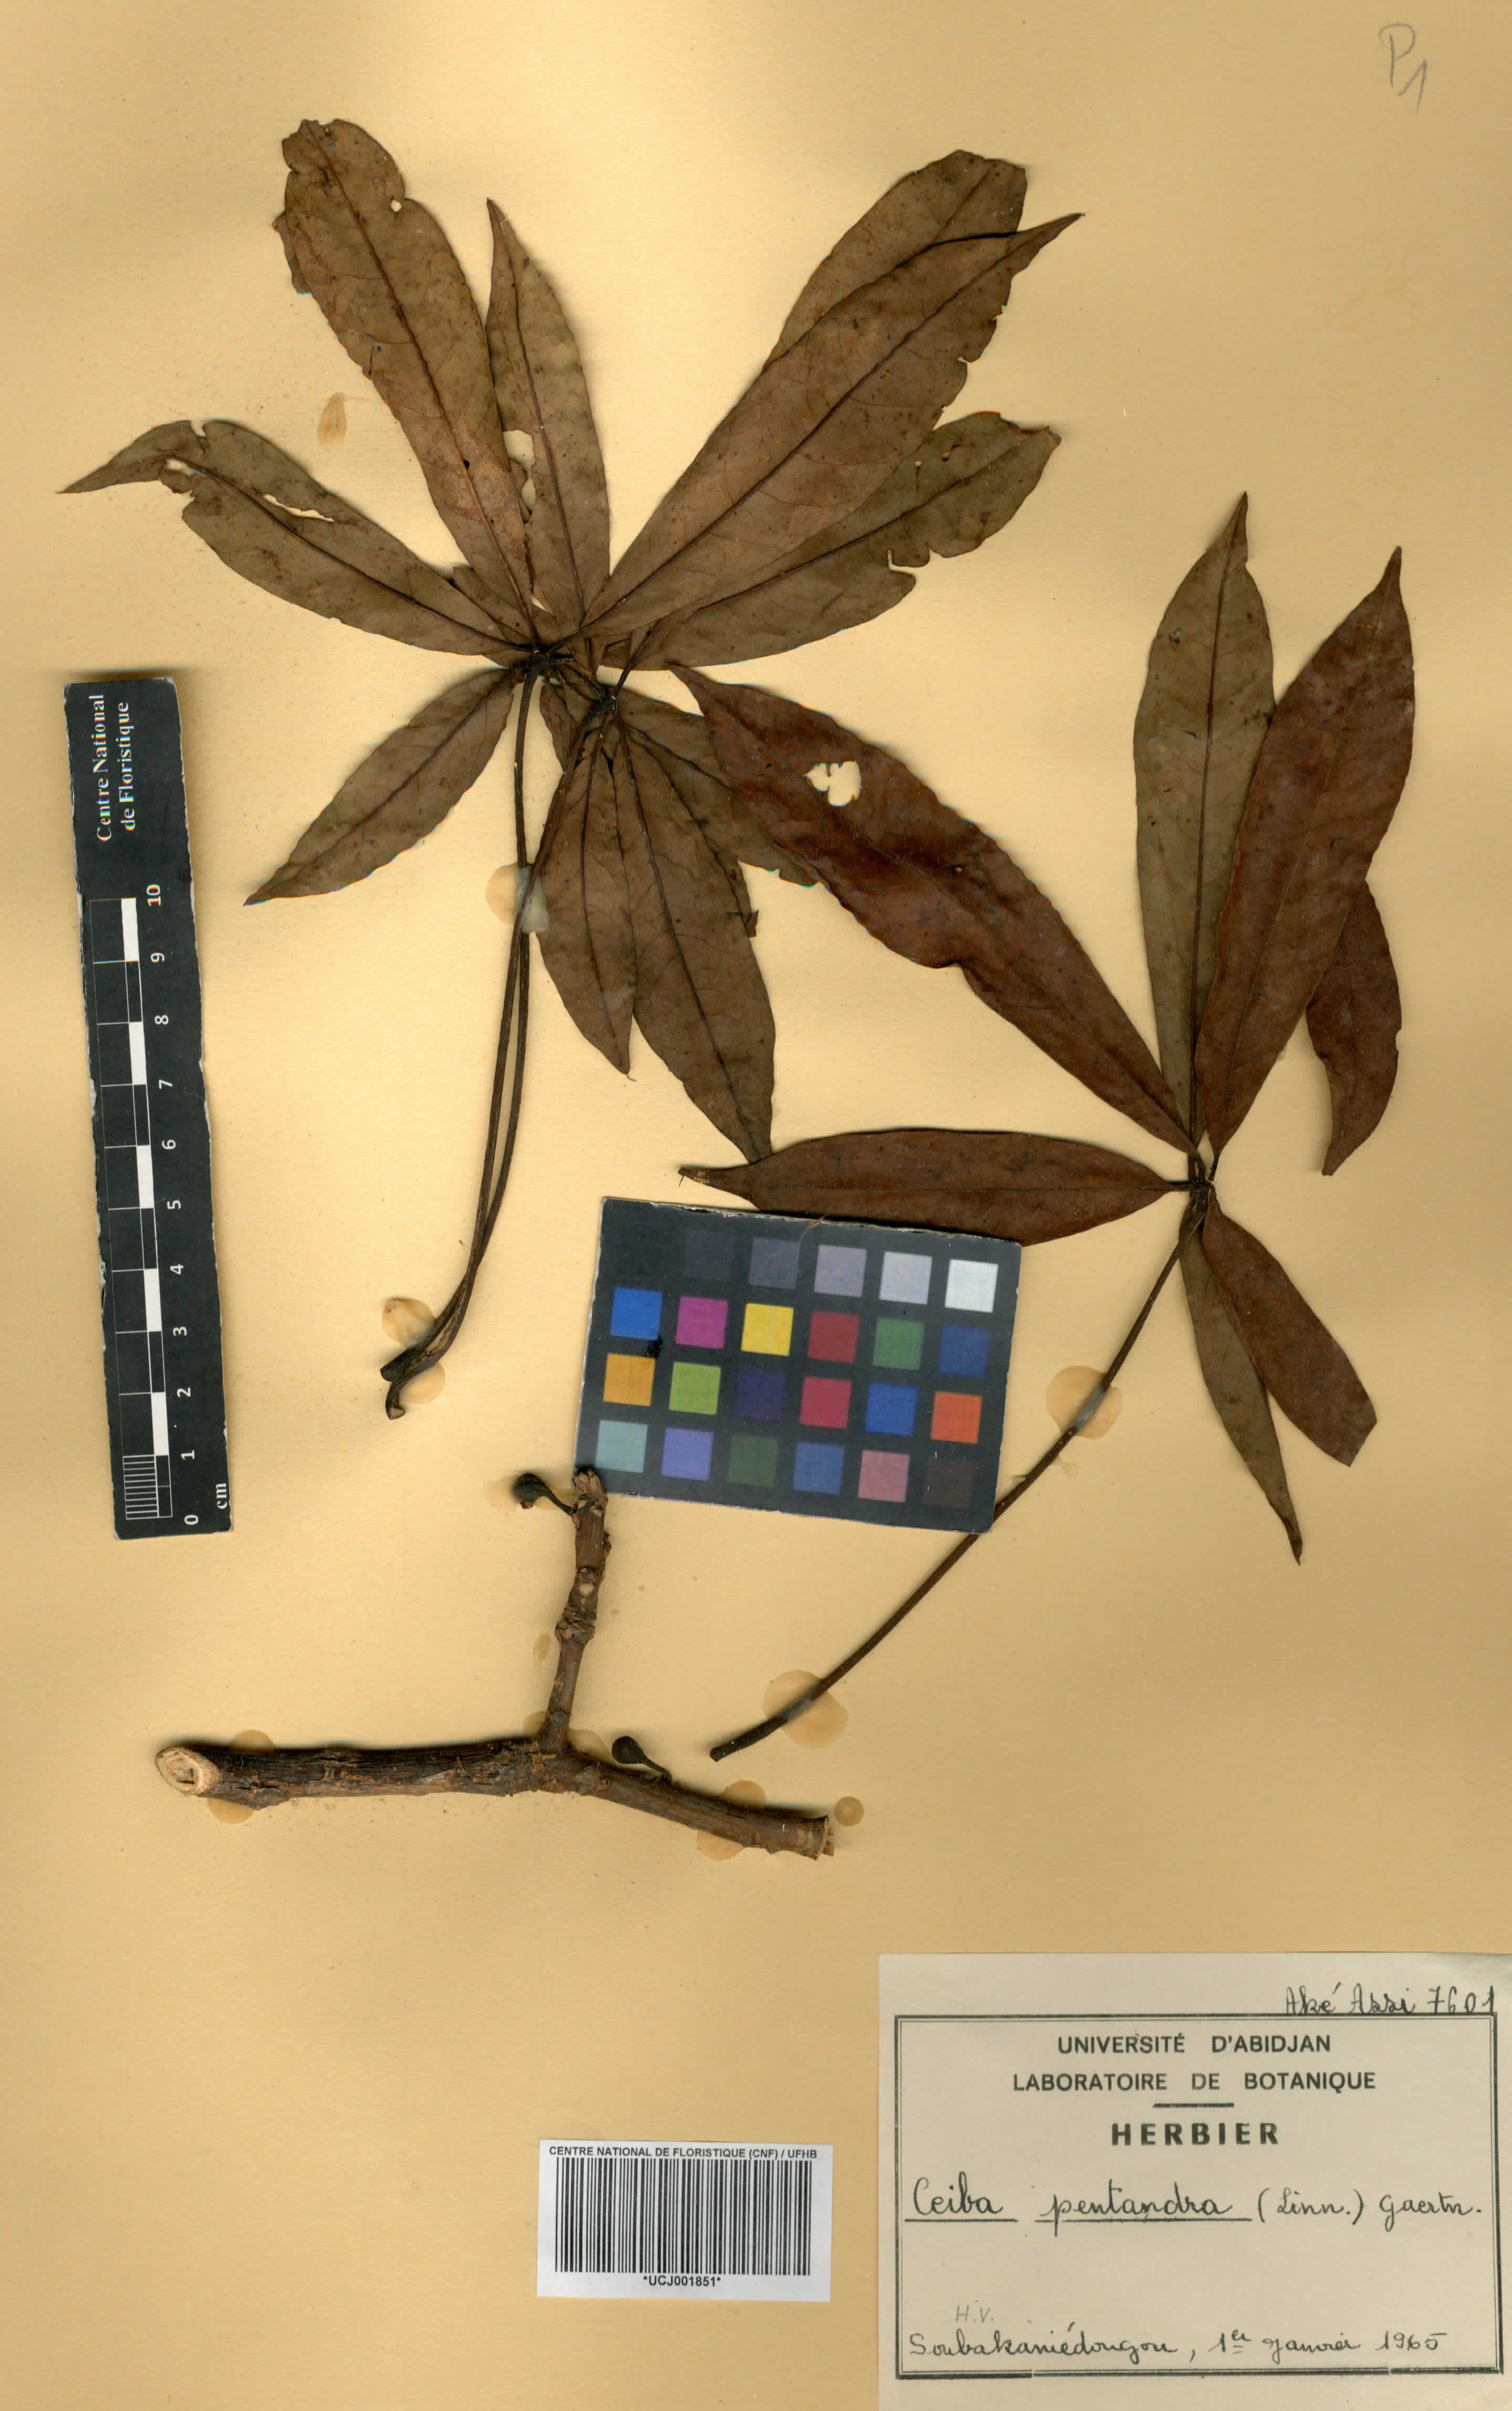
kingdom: Plantae
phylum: Tracheophyta
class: Magnoliopsida
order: Malvales
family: Malvaceae
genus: Ceiba
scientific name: Ceiba pentandra
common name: Kapok
